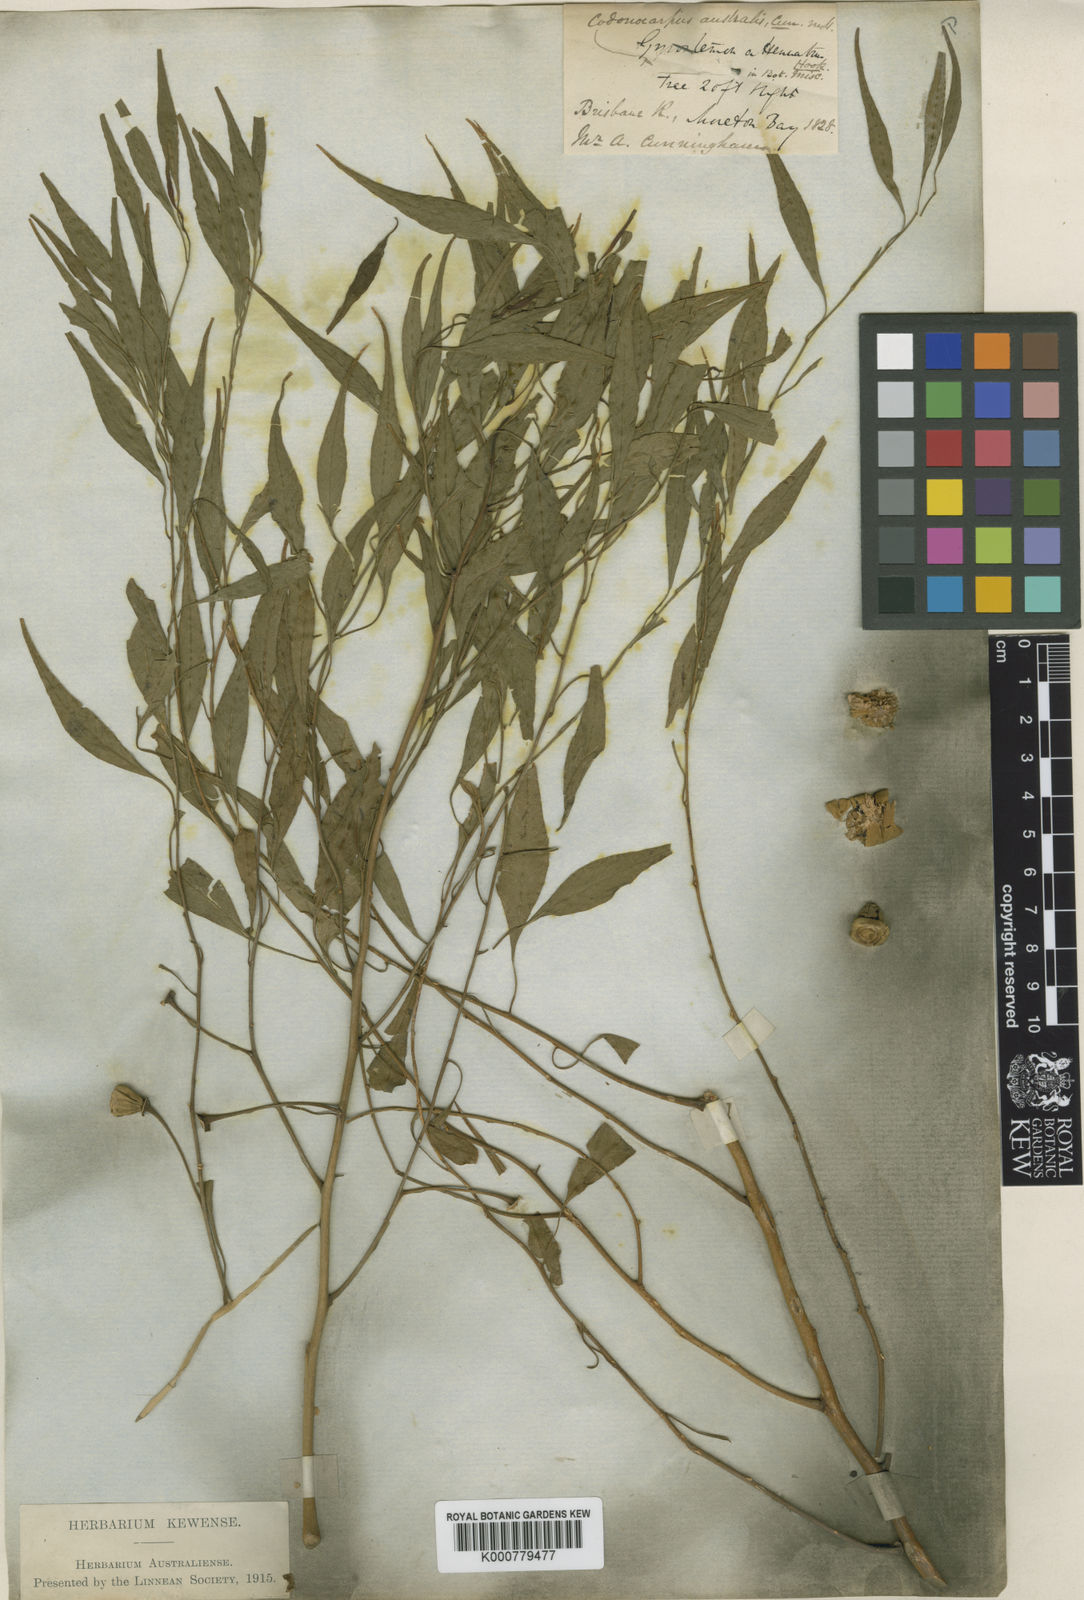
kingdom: Plantae
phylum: Tracheophyta
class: Magnoliopsida
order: Brassicales
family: Gyrostemonaceae
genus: Codonocarpus
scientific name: Codonocarpus attenuatus
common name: Bell-fruit-tree
